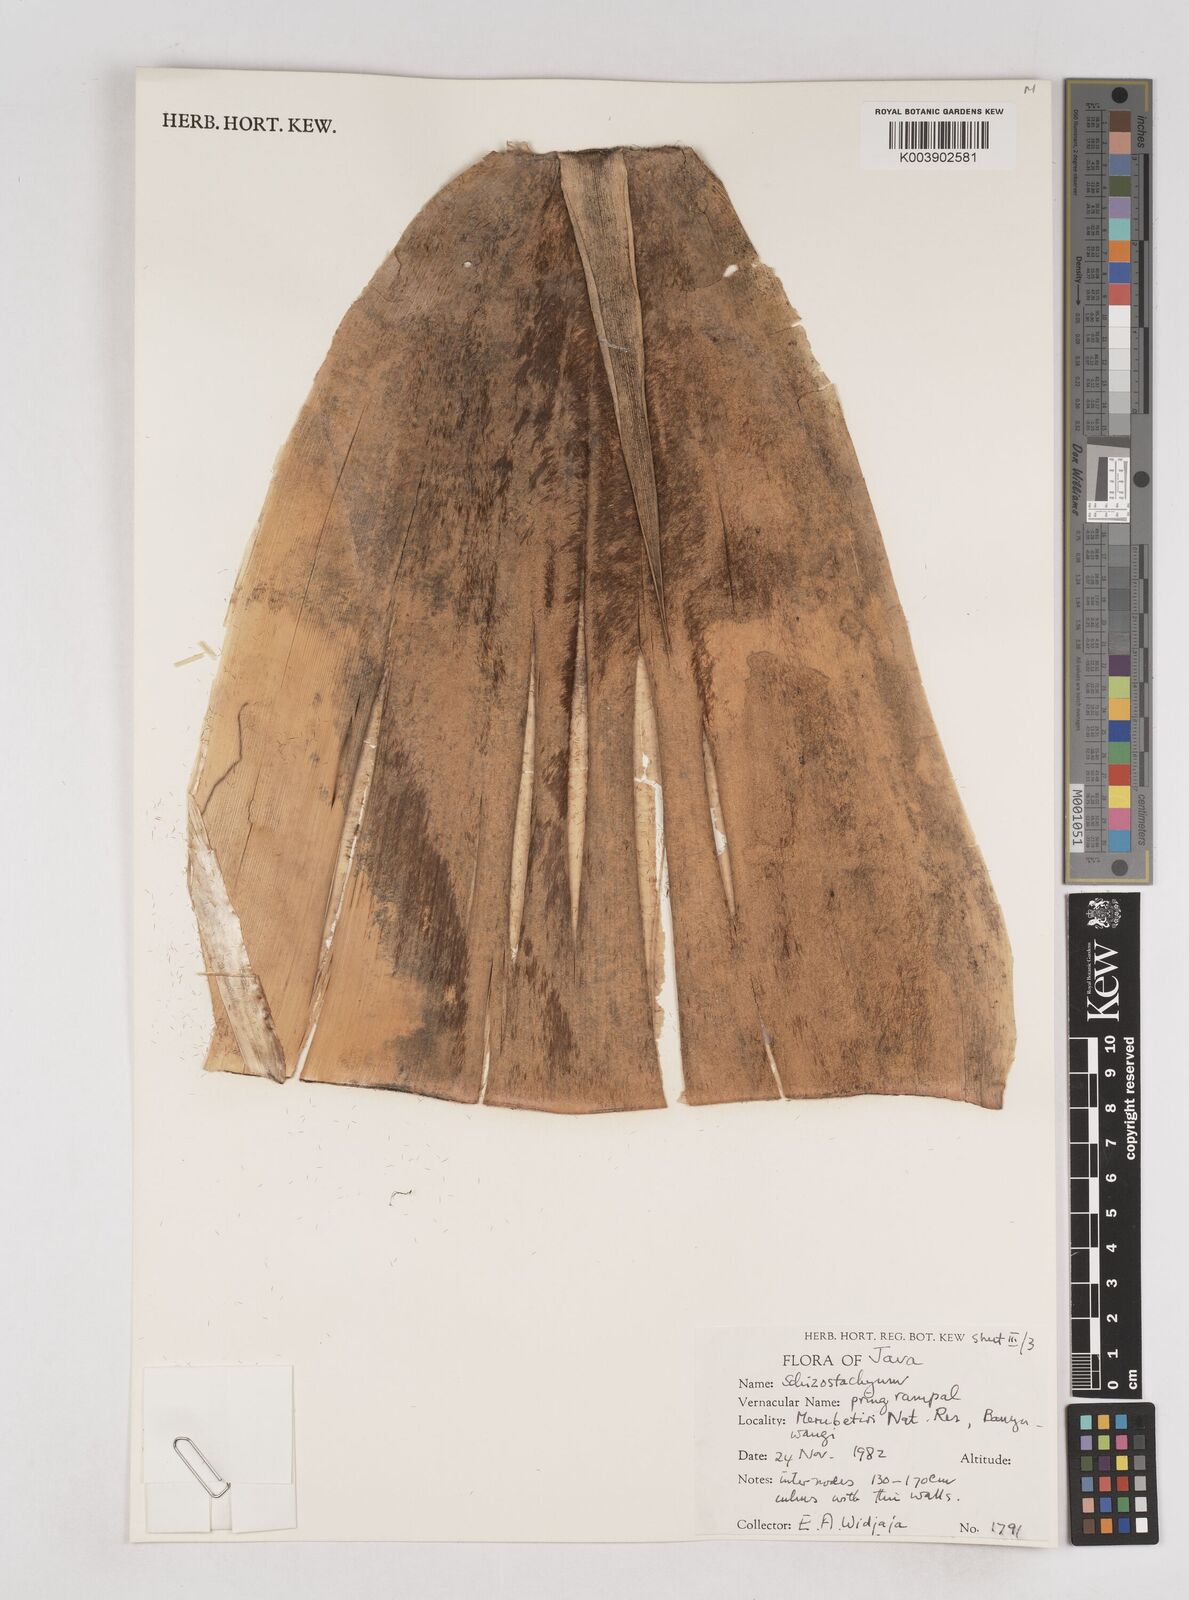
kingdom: Plantae
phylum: Tracheophyta
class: Liliopsida
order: Poales
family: Poaceae
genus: Schizostachyum
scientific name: Schizostachyum
